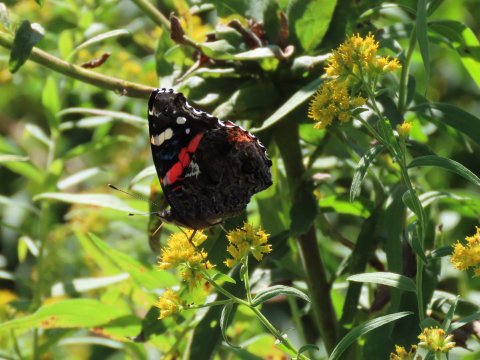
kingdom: Animalia
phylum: Arthropoda
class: Insecta
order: Lepidoptera
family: Nymphalidae
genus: Vanessa
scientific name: Vanessa atalanta
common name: Red Admiral
